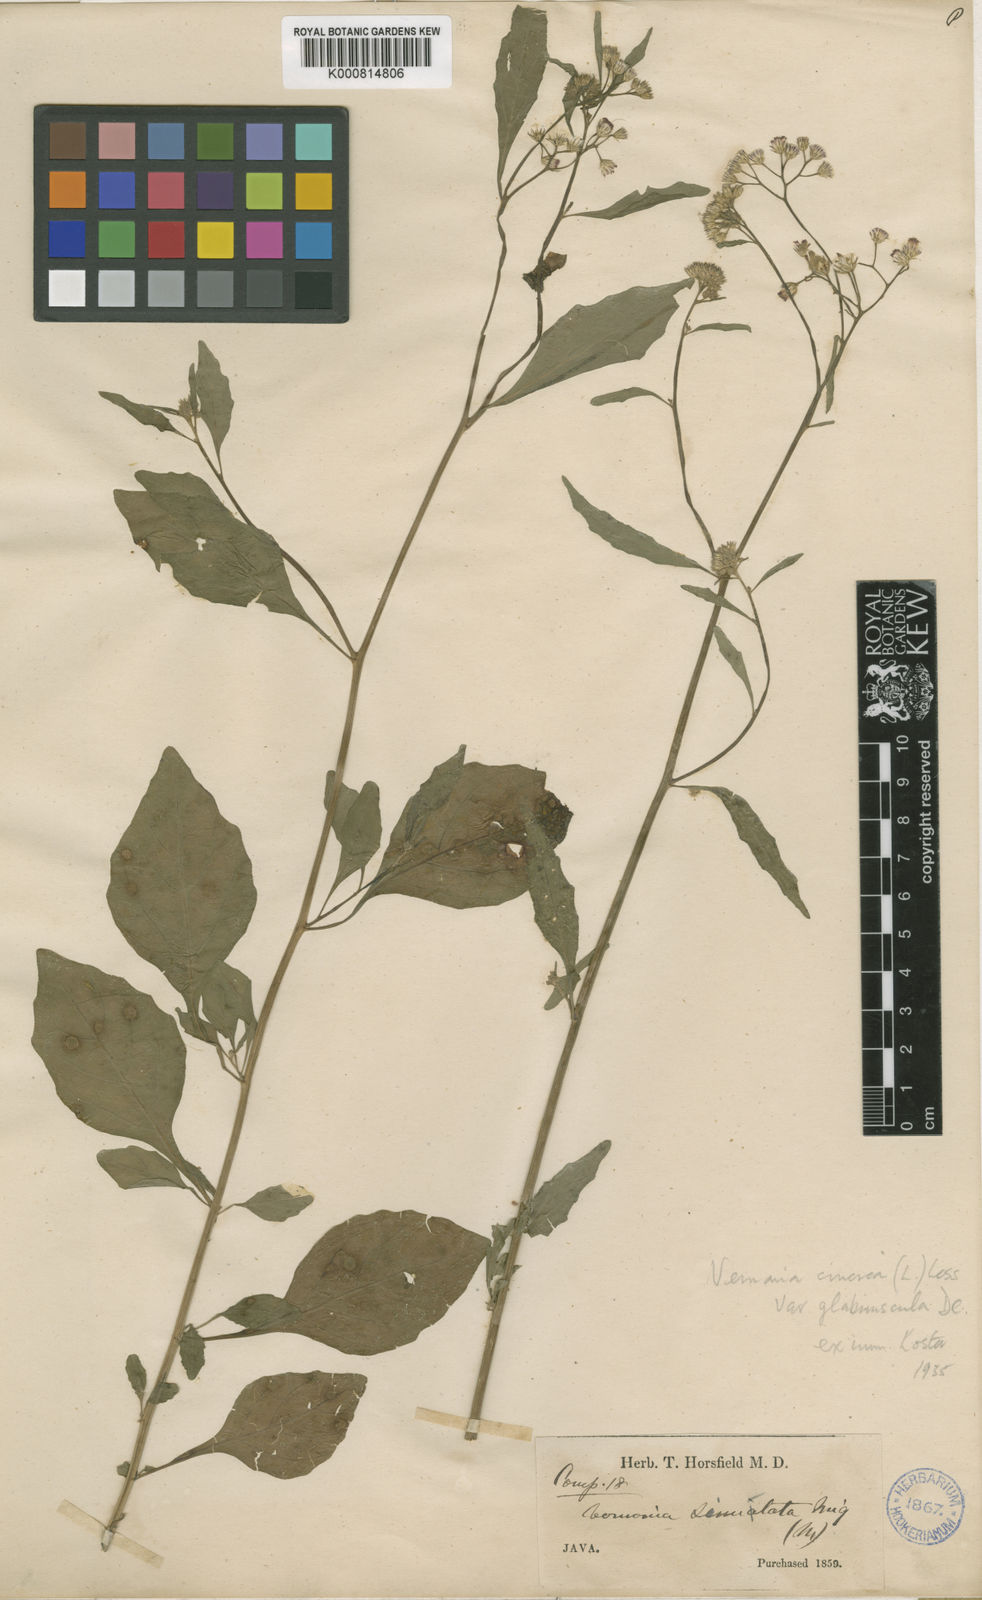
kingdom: Plantae
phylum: Tracheophyta
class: Magnoliopsida
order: Asterales
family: Asteraceae
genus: Cyanthillium
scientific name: Cyanthillium cinereum
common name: Little ironweed
